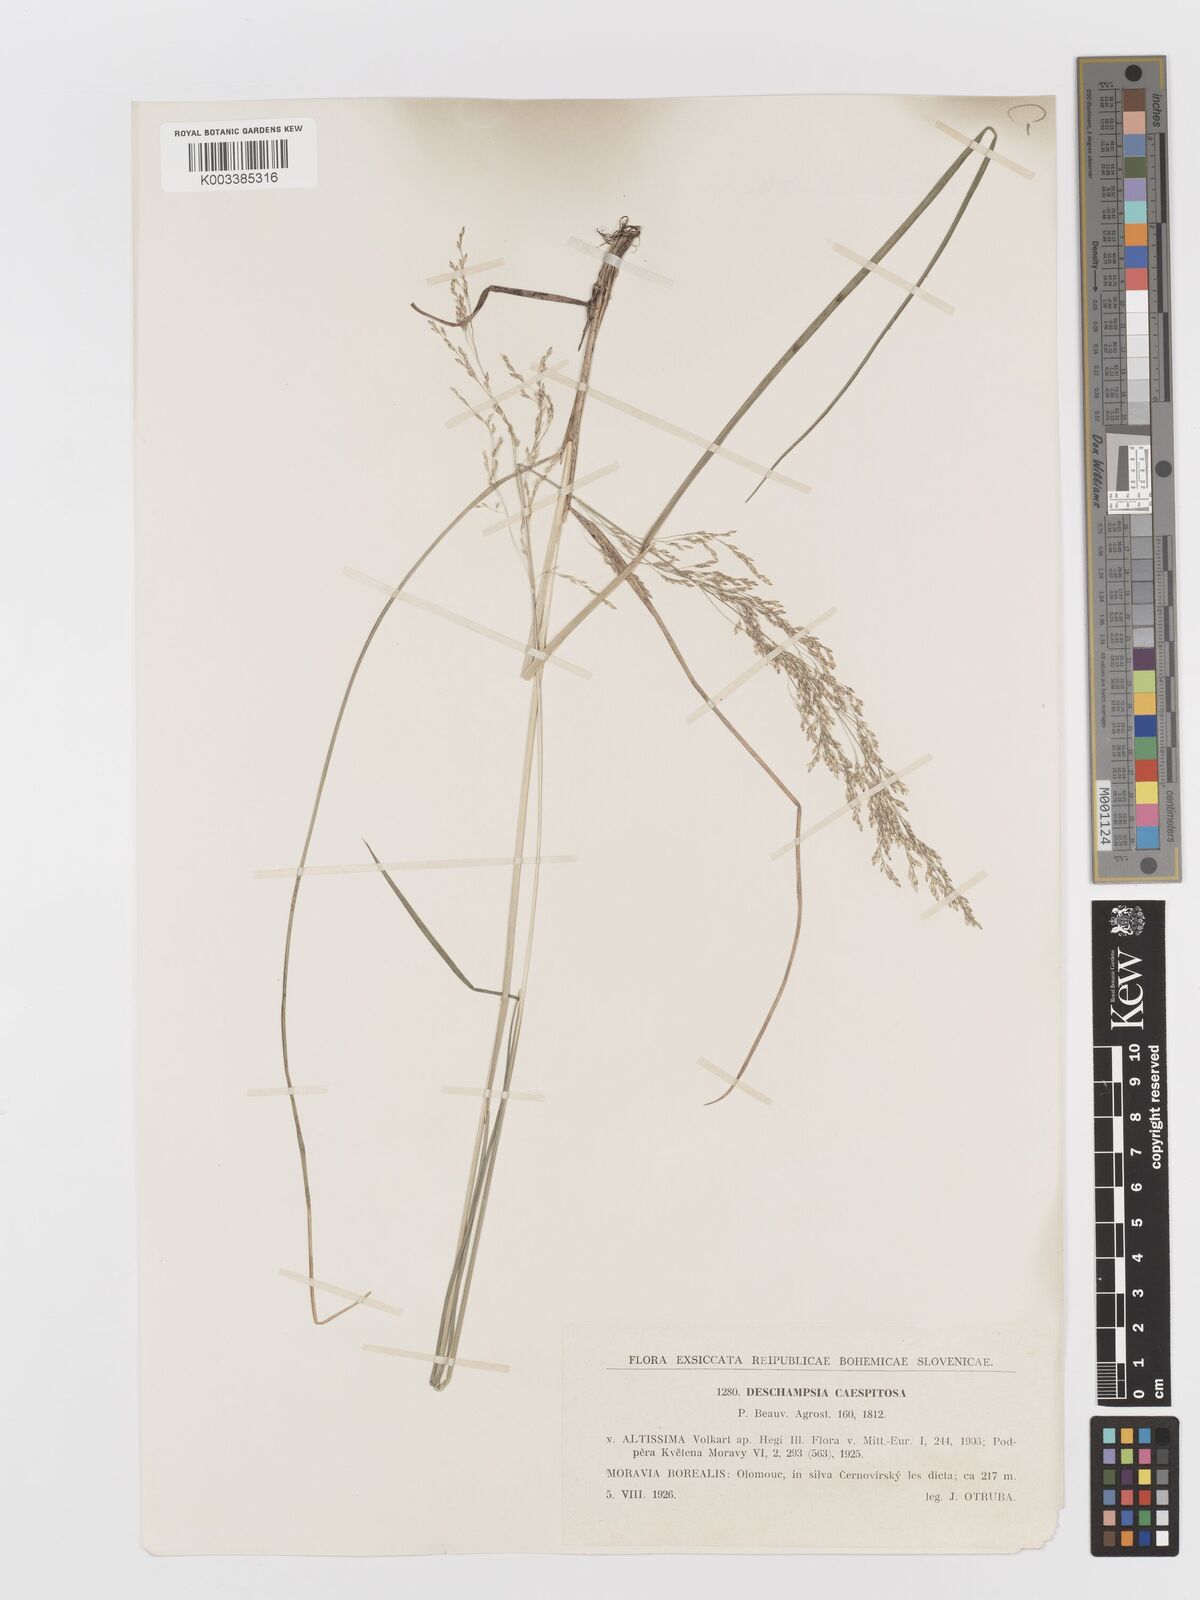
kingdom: Plantae
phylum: Tracheophyta
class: Liliopsida
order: Poales
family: Poaceae
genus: Deschampsia
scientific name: Deschampsia cespitosa
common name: Tufted hair-grass
